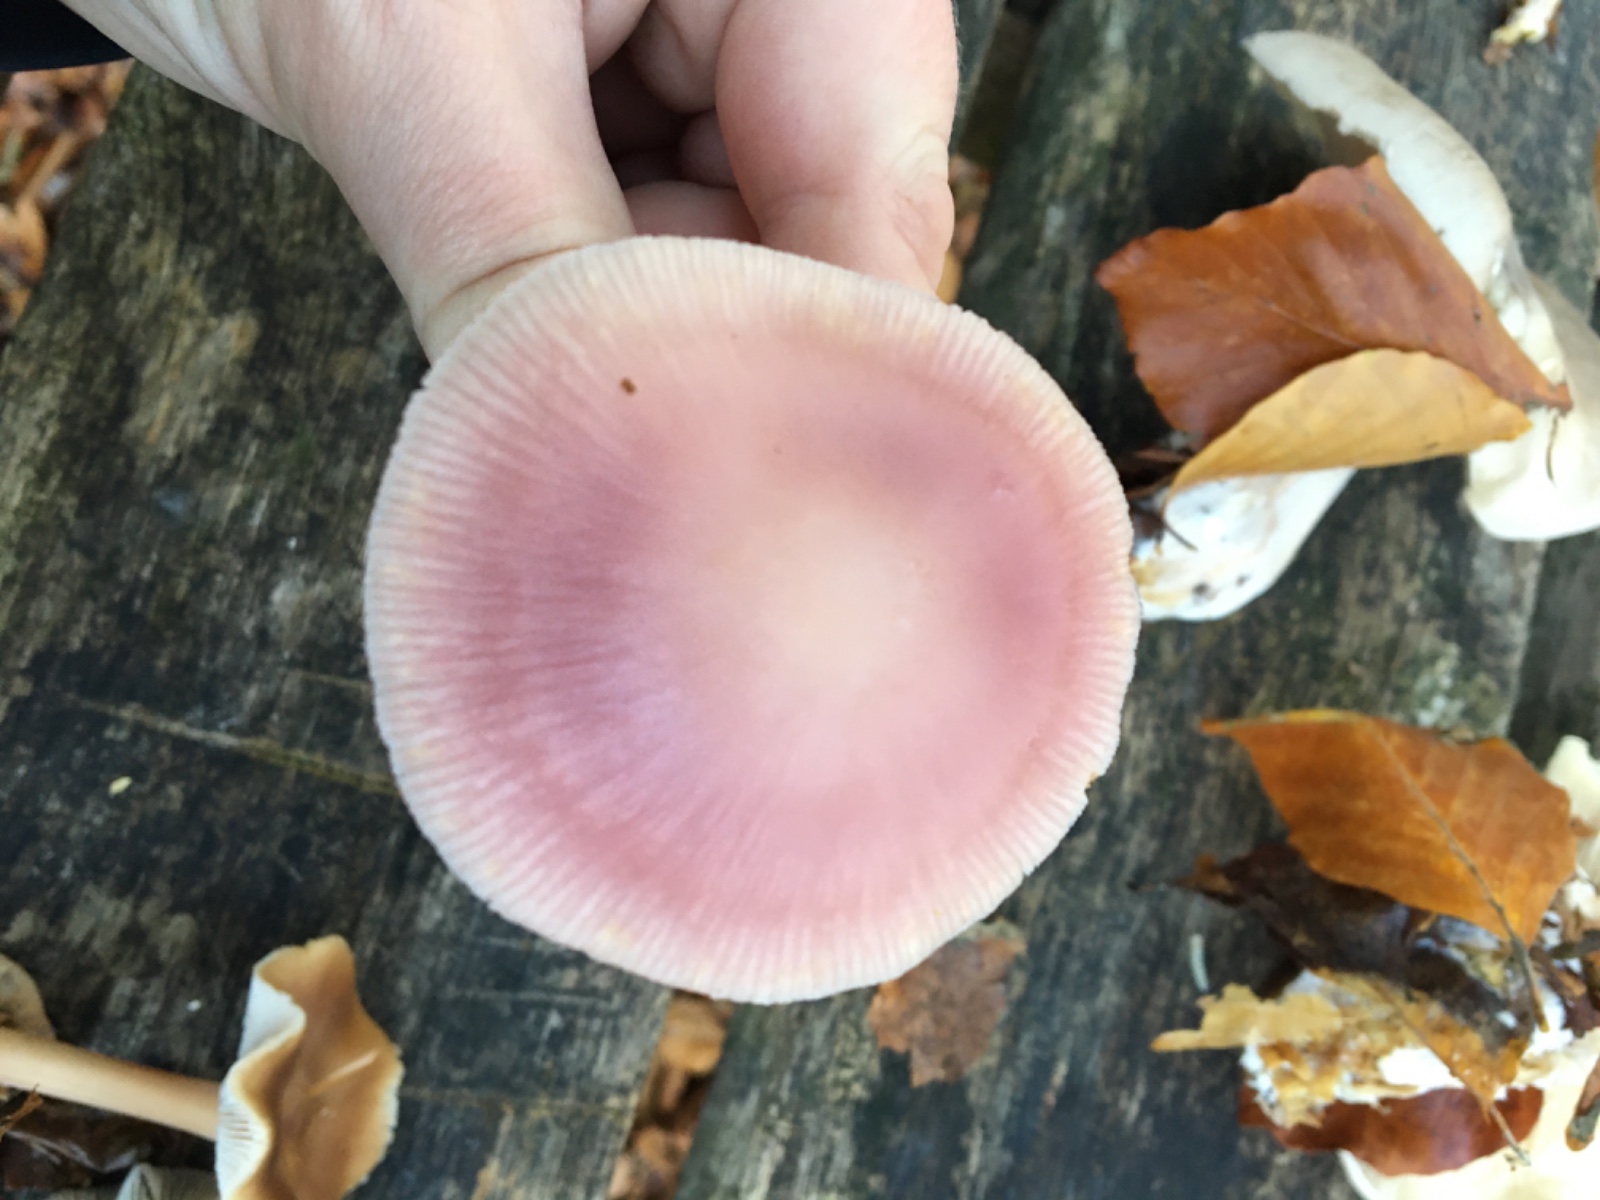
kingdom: Fungi
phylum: Basidiomycota
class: Agaricomycetes
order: Agaricales
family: Mycenaceae
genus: Mycena
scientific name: Mycena rosea
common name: rosa huesvamp
